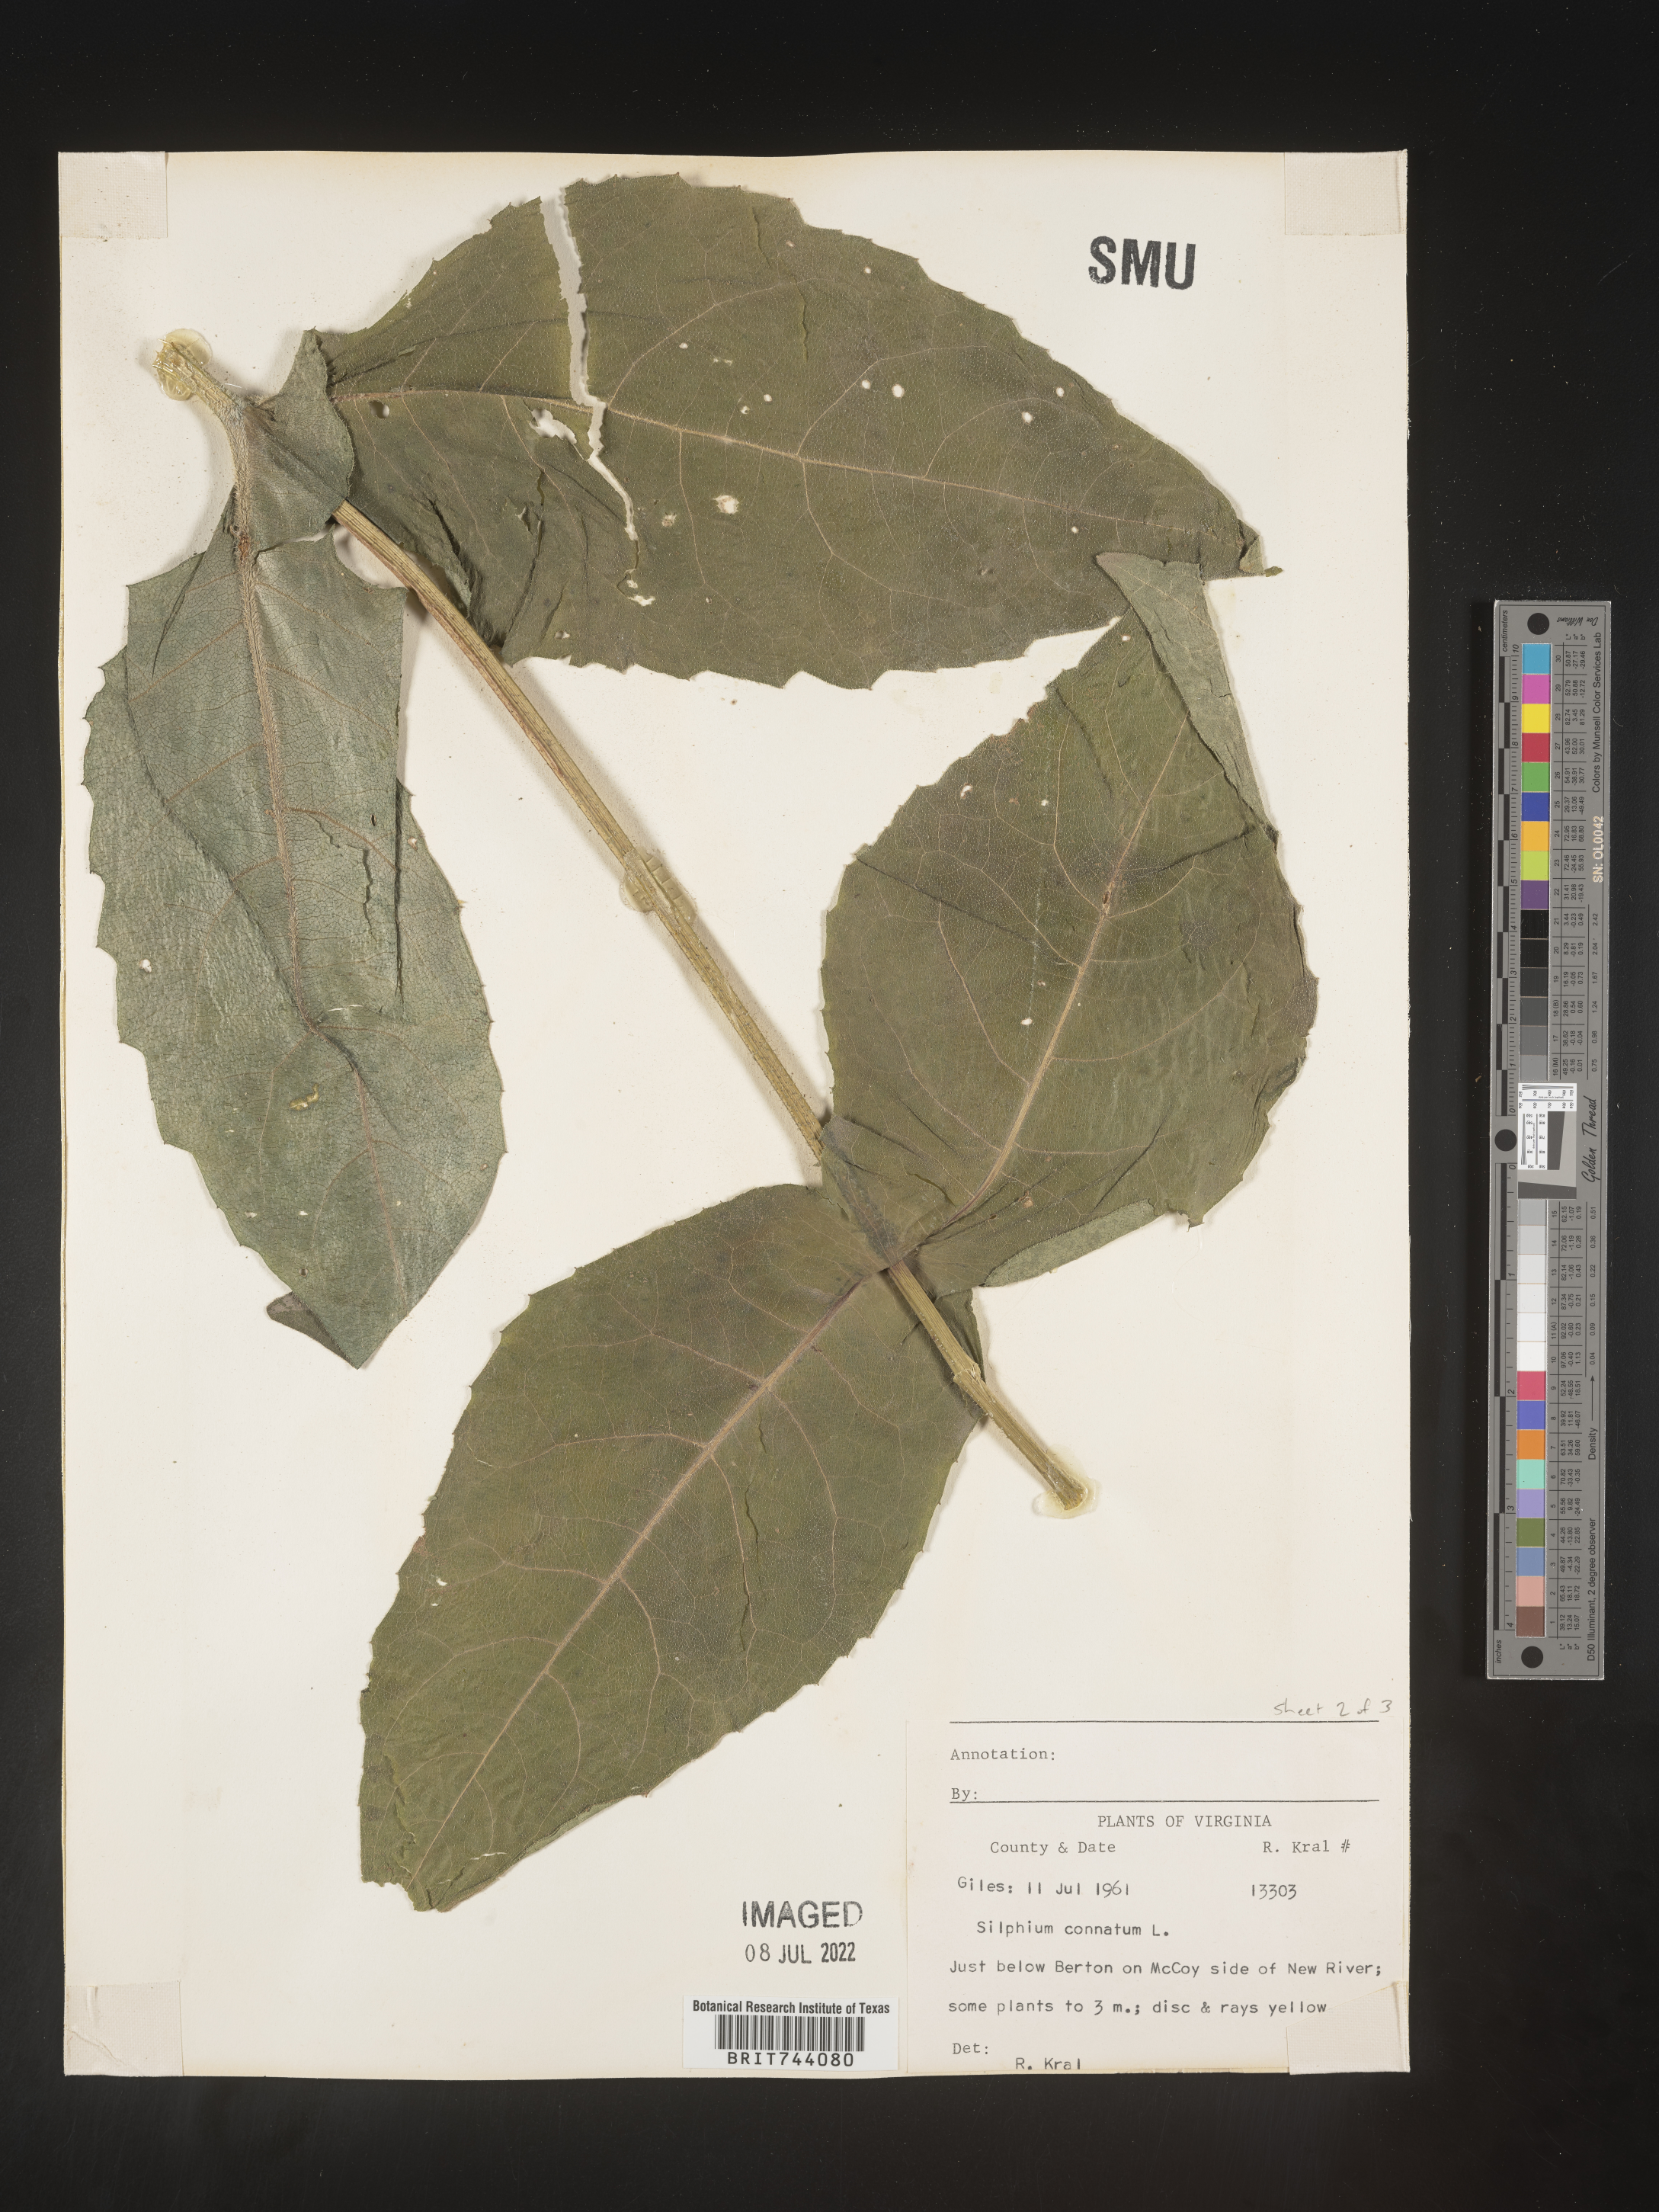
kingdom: Plantae
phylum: Tracheophyta
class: Magnoliopsida
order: Asterales
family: Asteraceae
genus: Silphium
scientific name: Silphium perfoliatum
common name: Cup-plant
